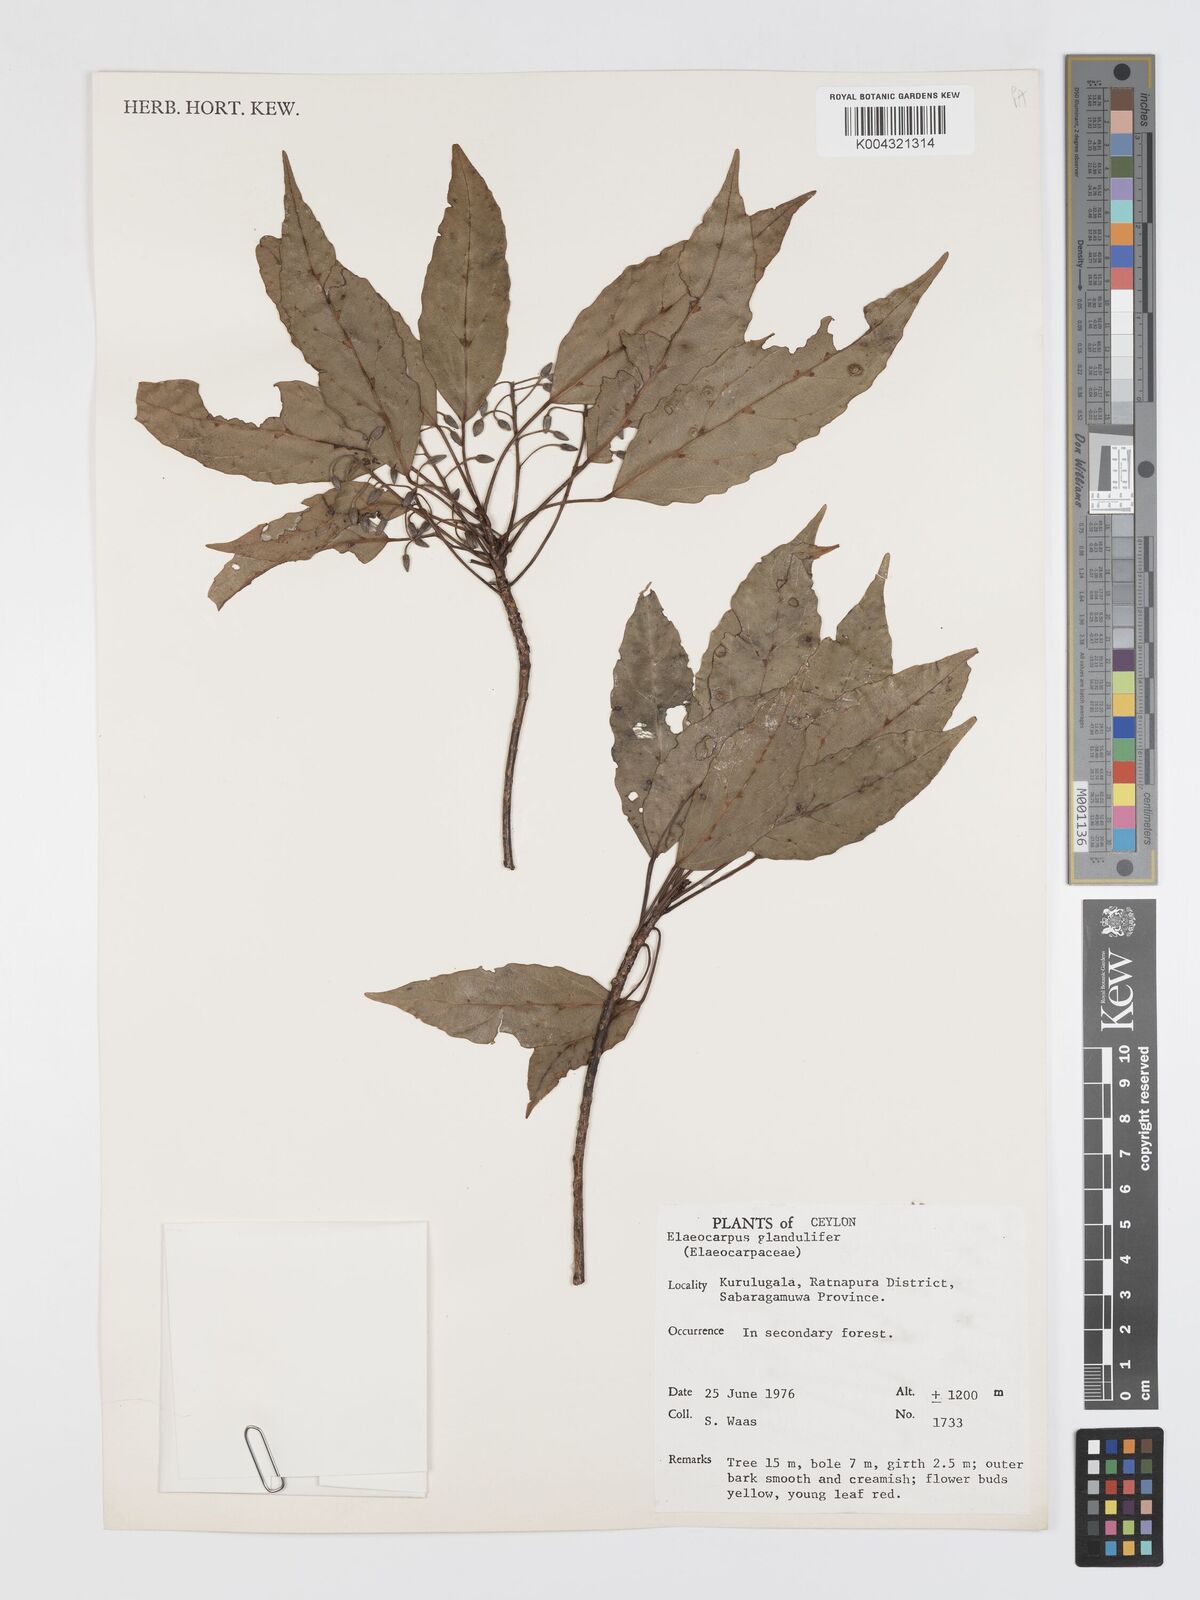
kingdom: Plantae
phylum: Tracheophyta
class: Magnoliopsida
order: Oxalidales
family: Elaeocarpaceae
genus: Elaeocarpus
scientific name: Elaeocarpus glandulifer
